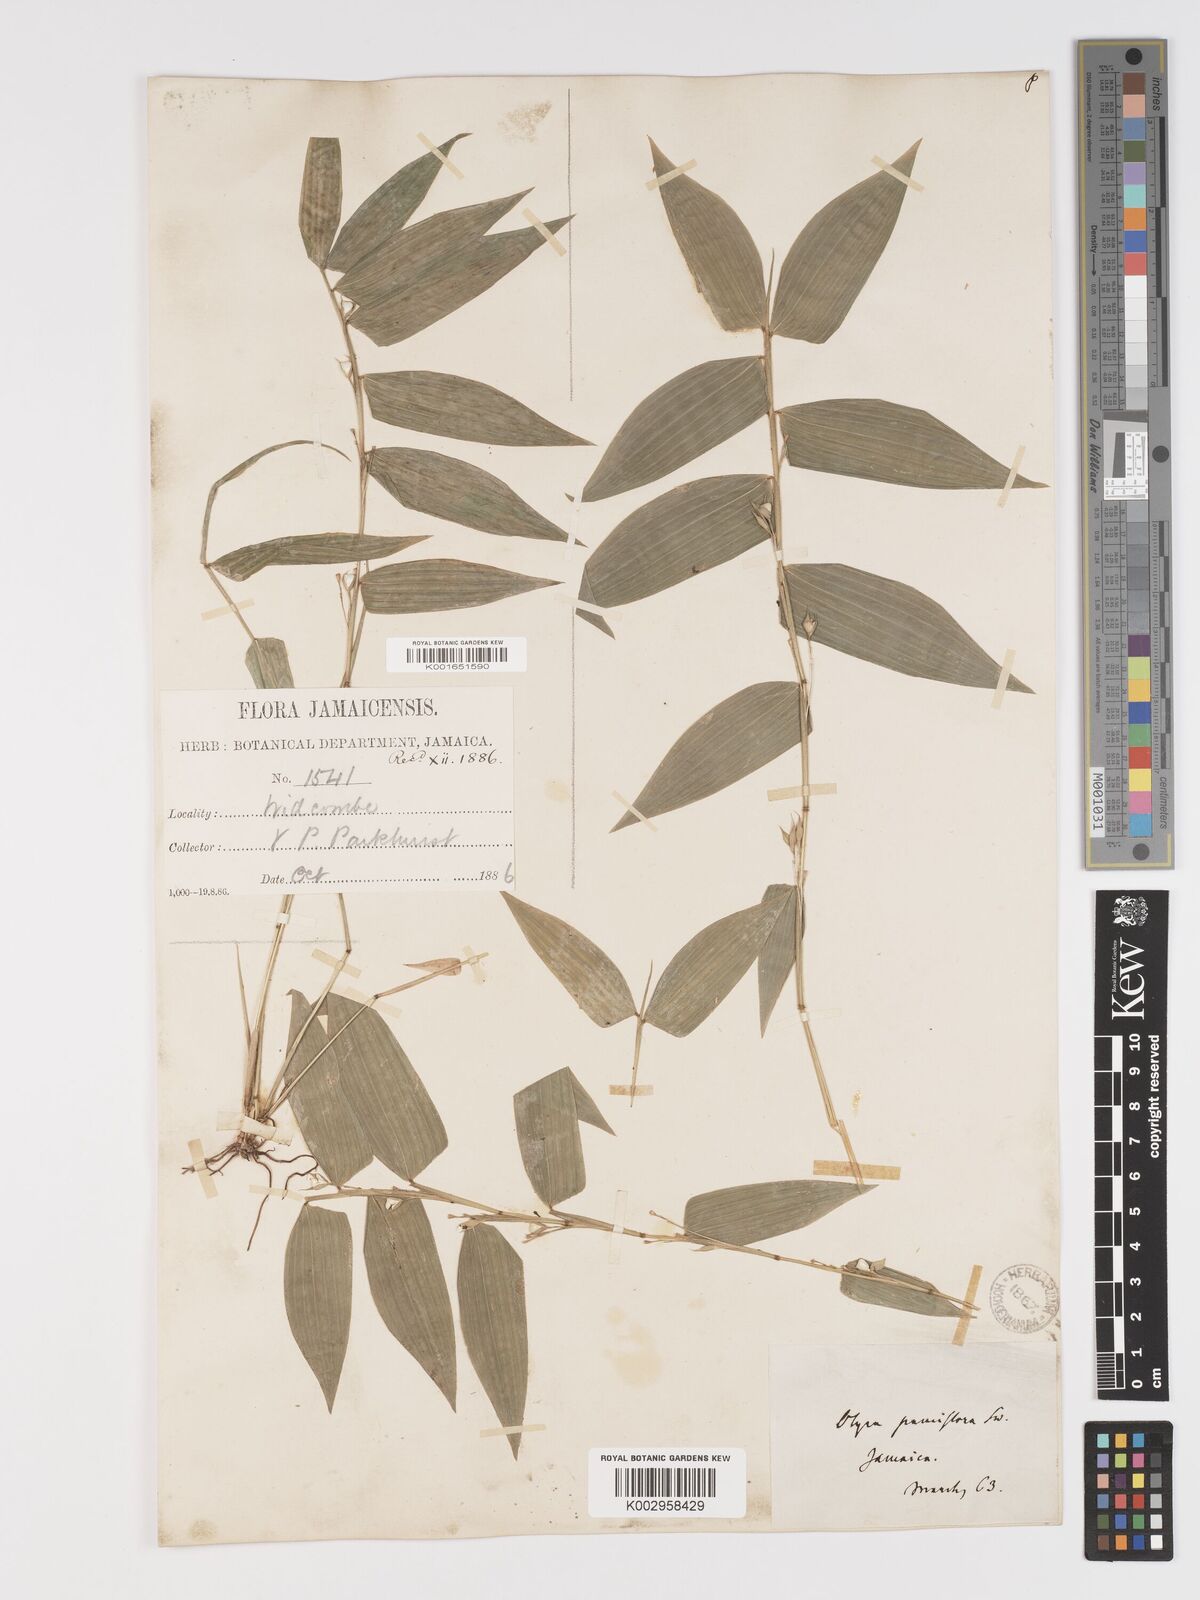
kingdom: Plantae
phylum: Tracheophyta
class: Liliopsida
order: Poales
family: Poaceae
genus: Lithachne
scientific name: Lithachne pauciflora
